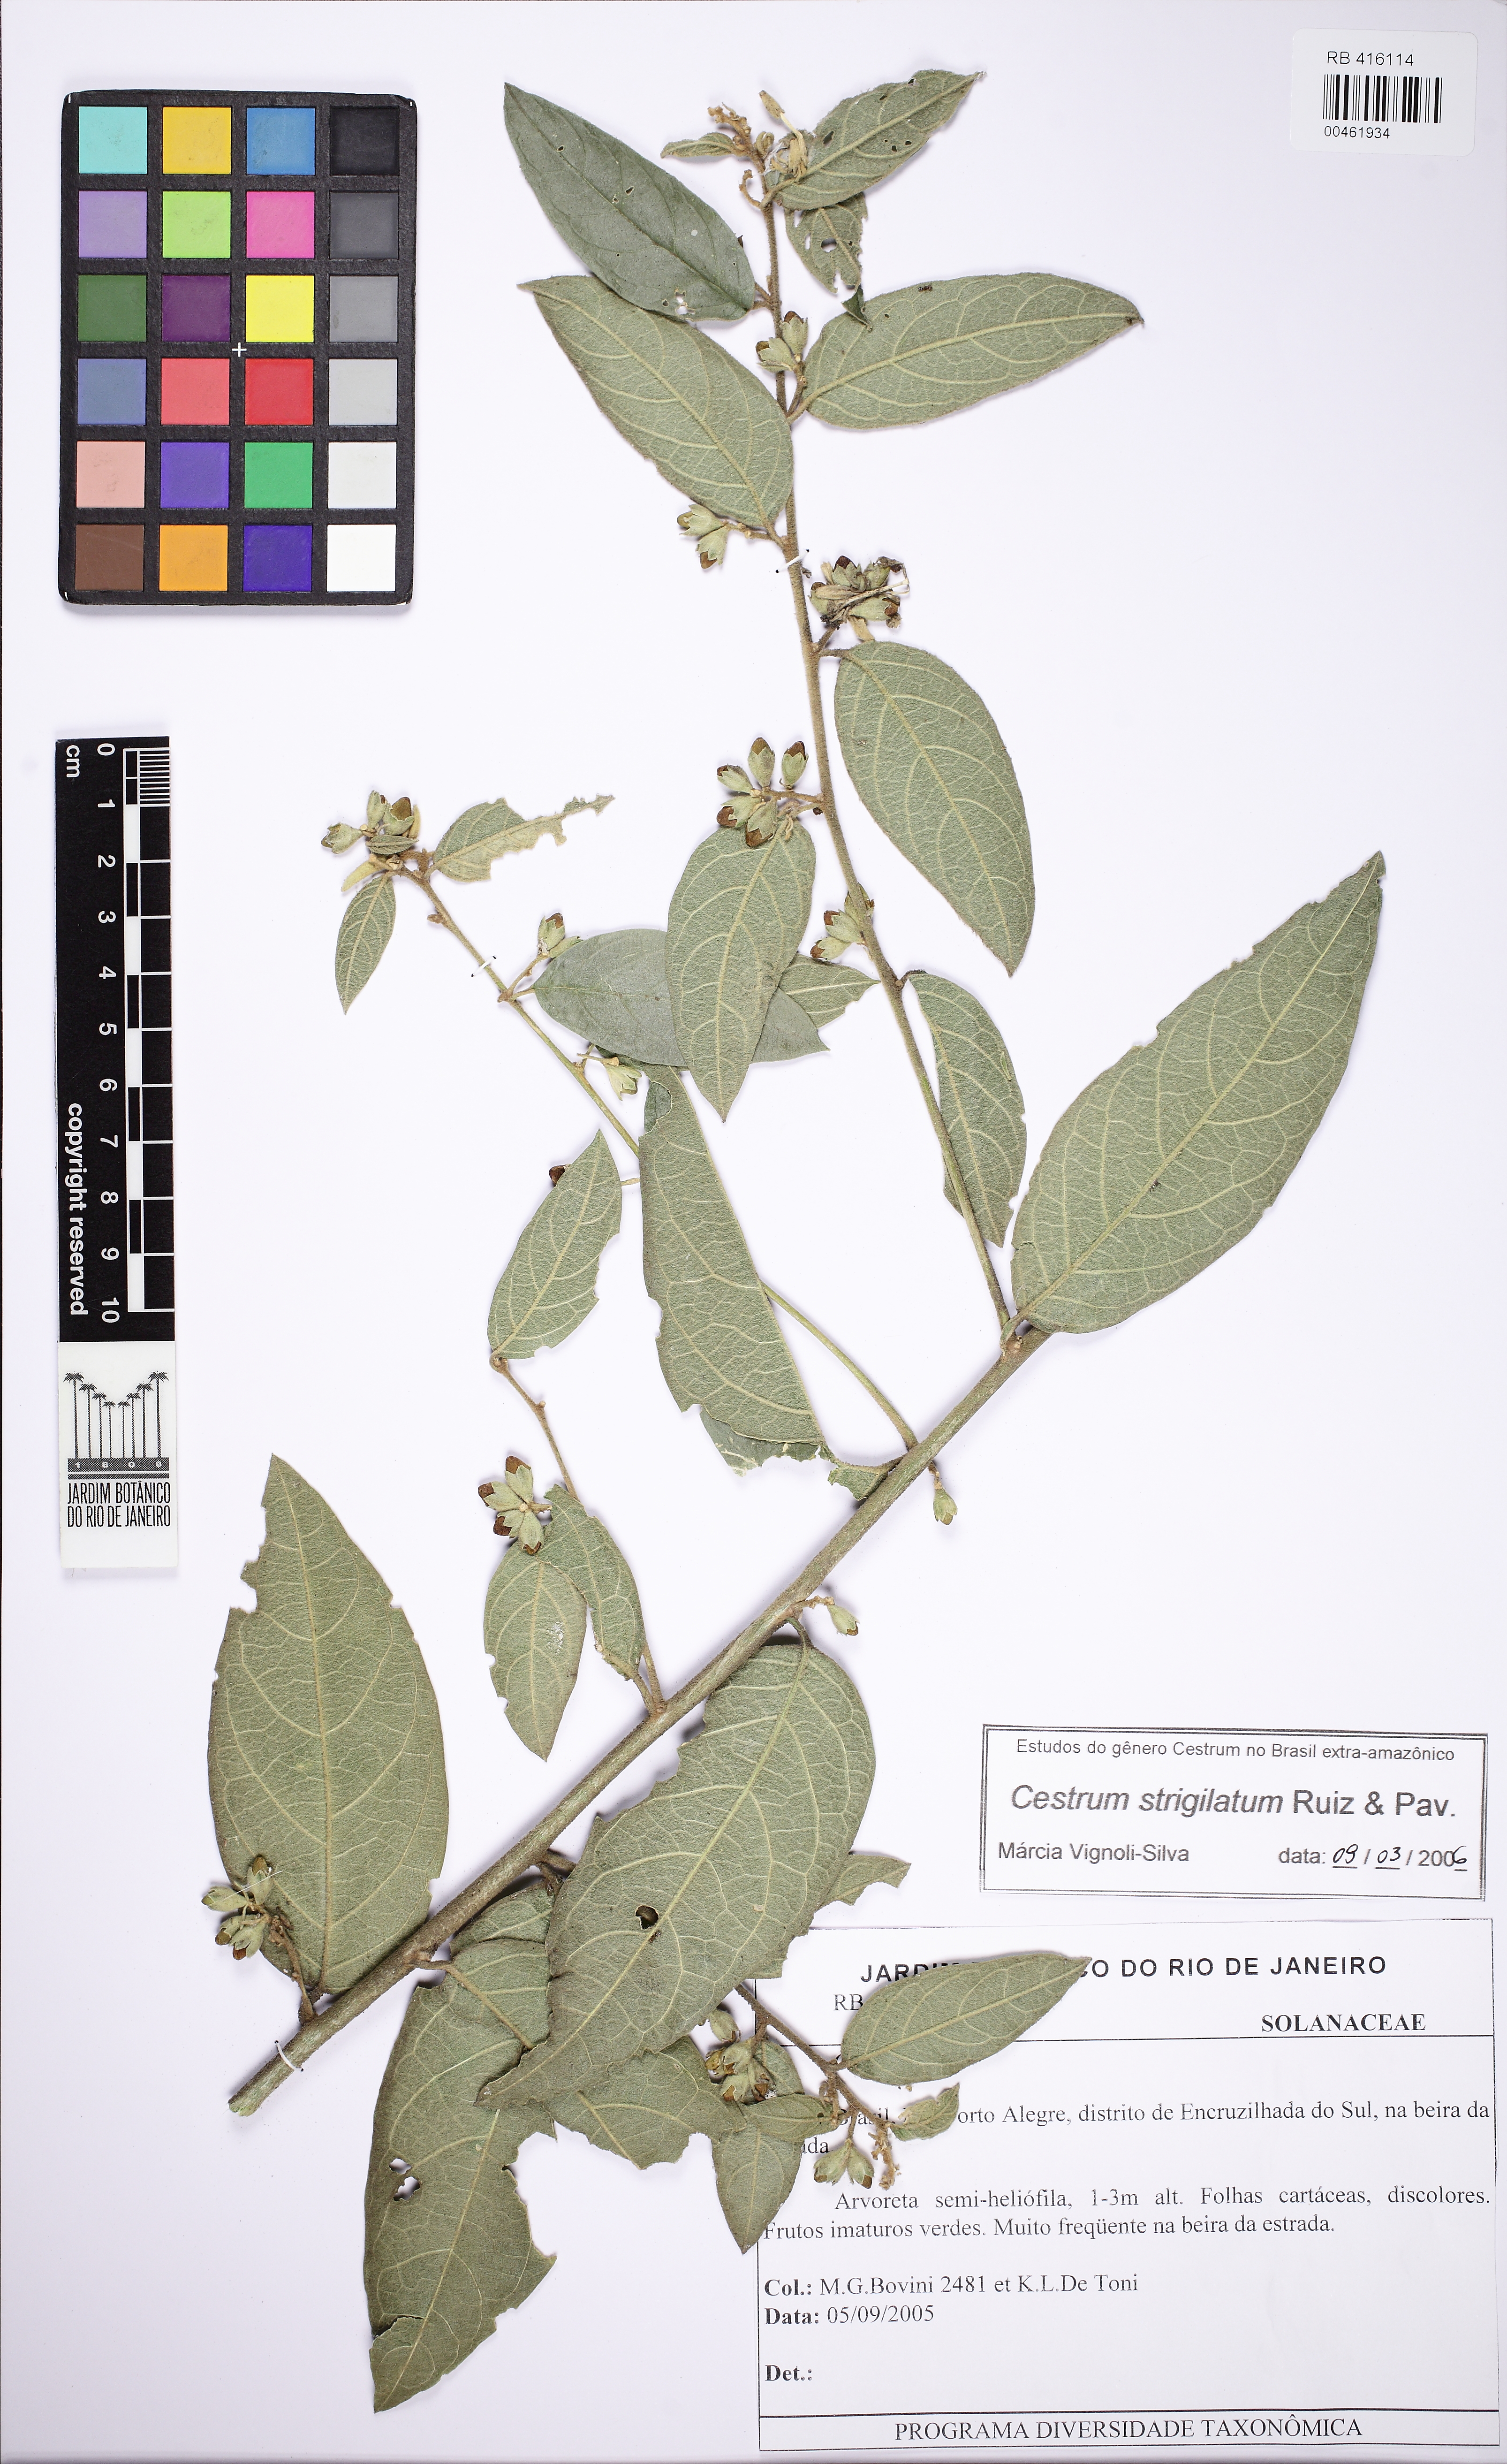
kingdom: Plantae
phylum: Tracheophyta
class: Magnoliopsida
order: Solanales
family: Solanaceae
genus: Cestrum
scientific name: Cestrum strigillatum
